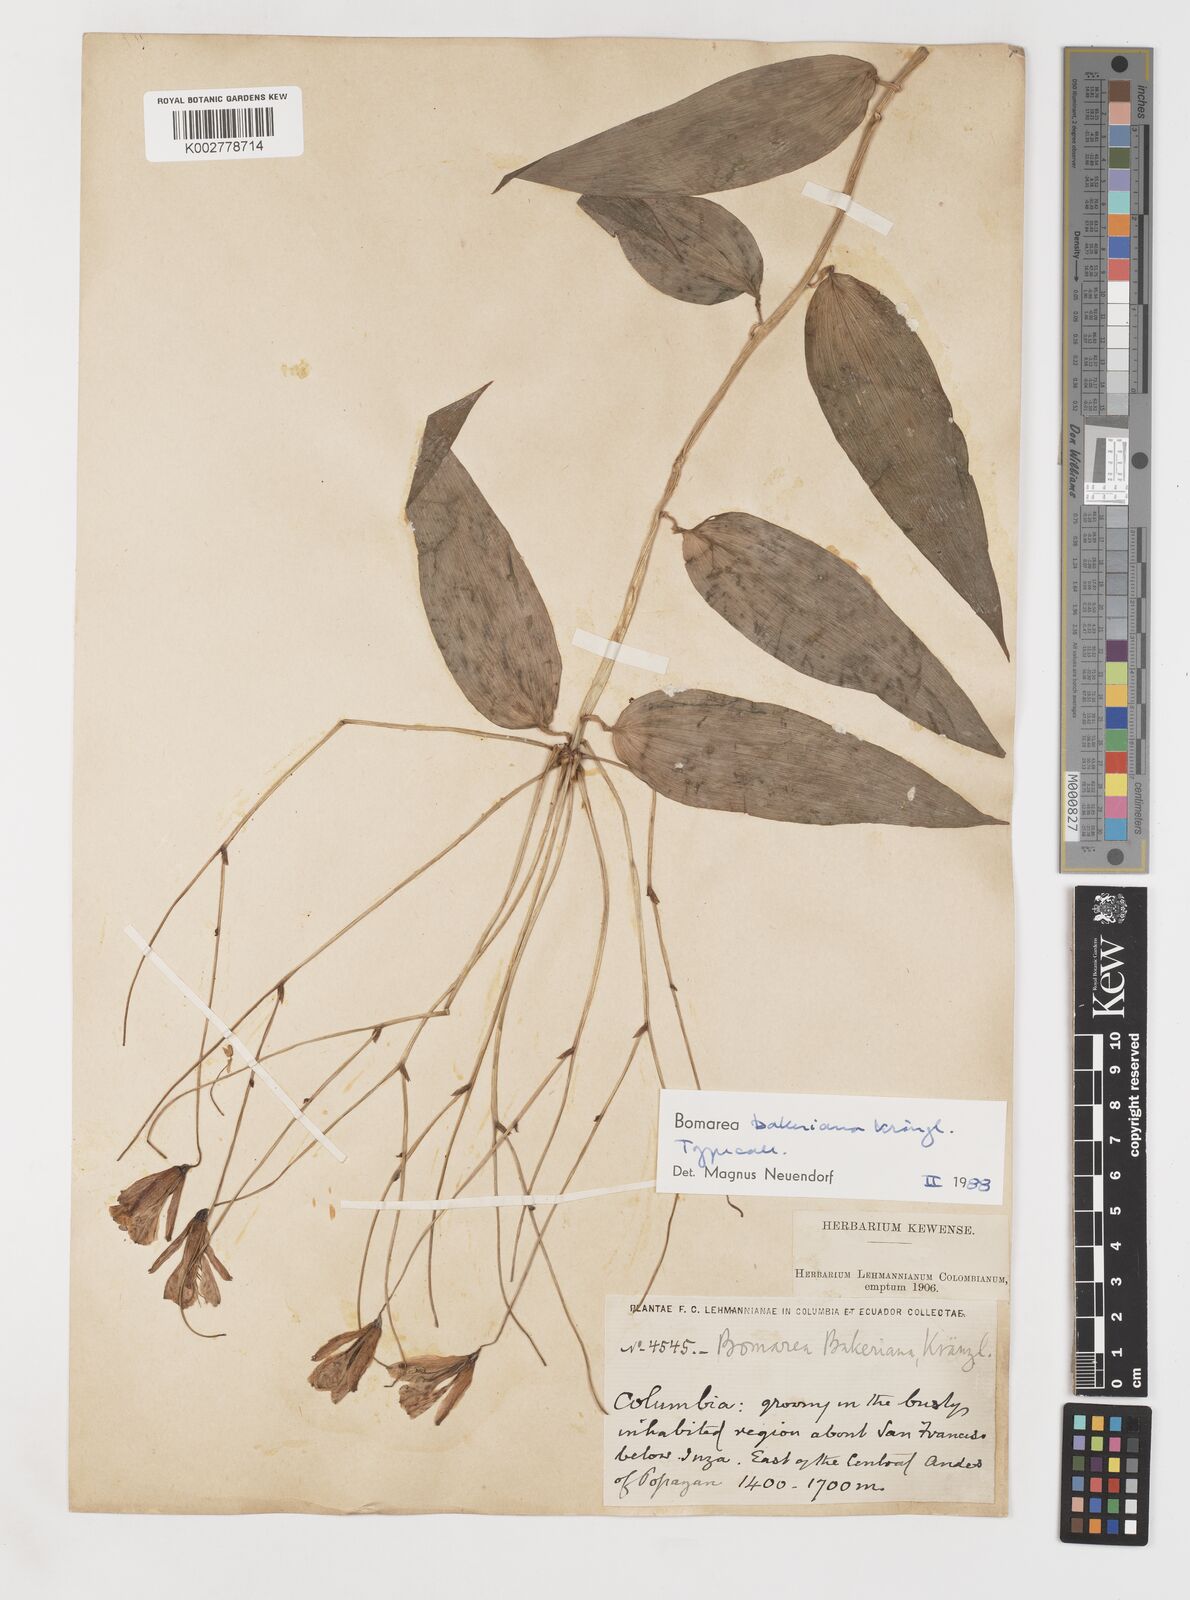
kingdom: Plantae
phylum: Tracheophyta
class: Liliopsida
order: Liliales
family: Alstroemeriaceae
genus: Bomarea
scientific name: Bomarea edulis
